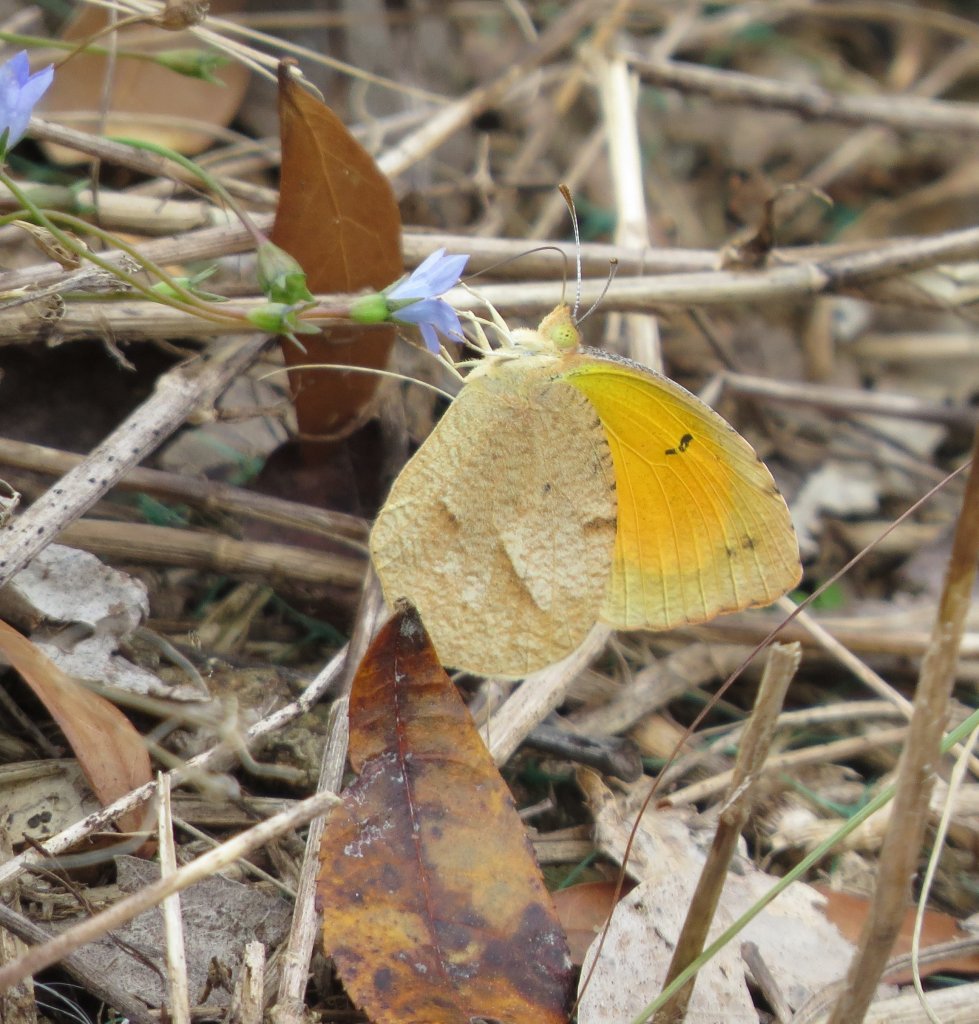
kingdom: Animalia
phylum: Arthropoda
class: Insecta
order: Lepidoptera
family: Pieridae
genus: Abaeis
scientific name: Abaeis nicippe
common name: Sleepy Orange
